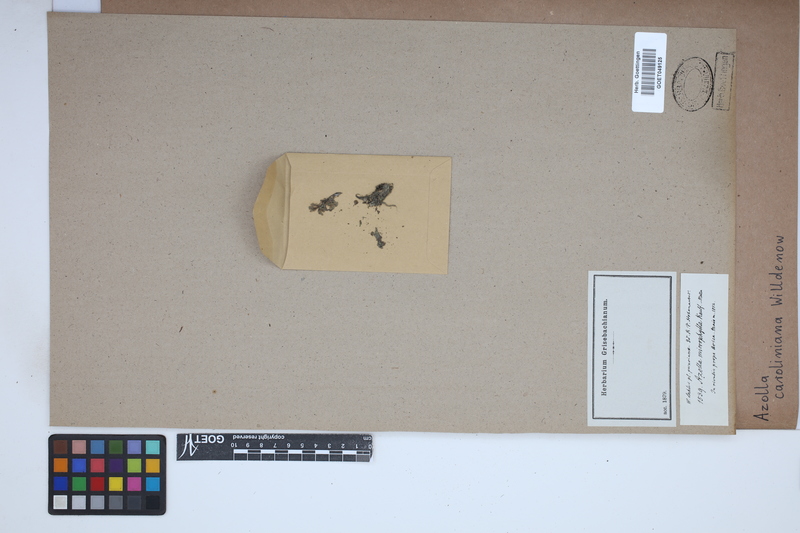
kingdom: Plantae
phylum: Tracheophyta
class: Polypodiopsida
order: Salviniales
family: Salviniaceae
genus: Azolla
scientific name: Azolla caroliniana
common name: Carolina mosquitofern
